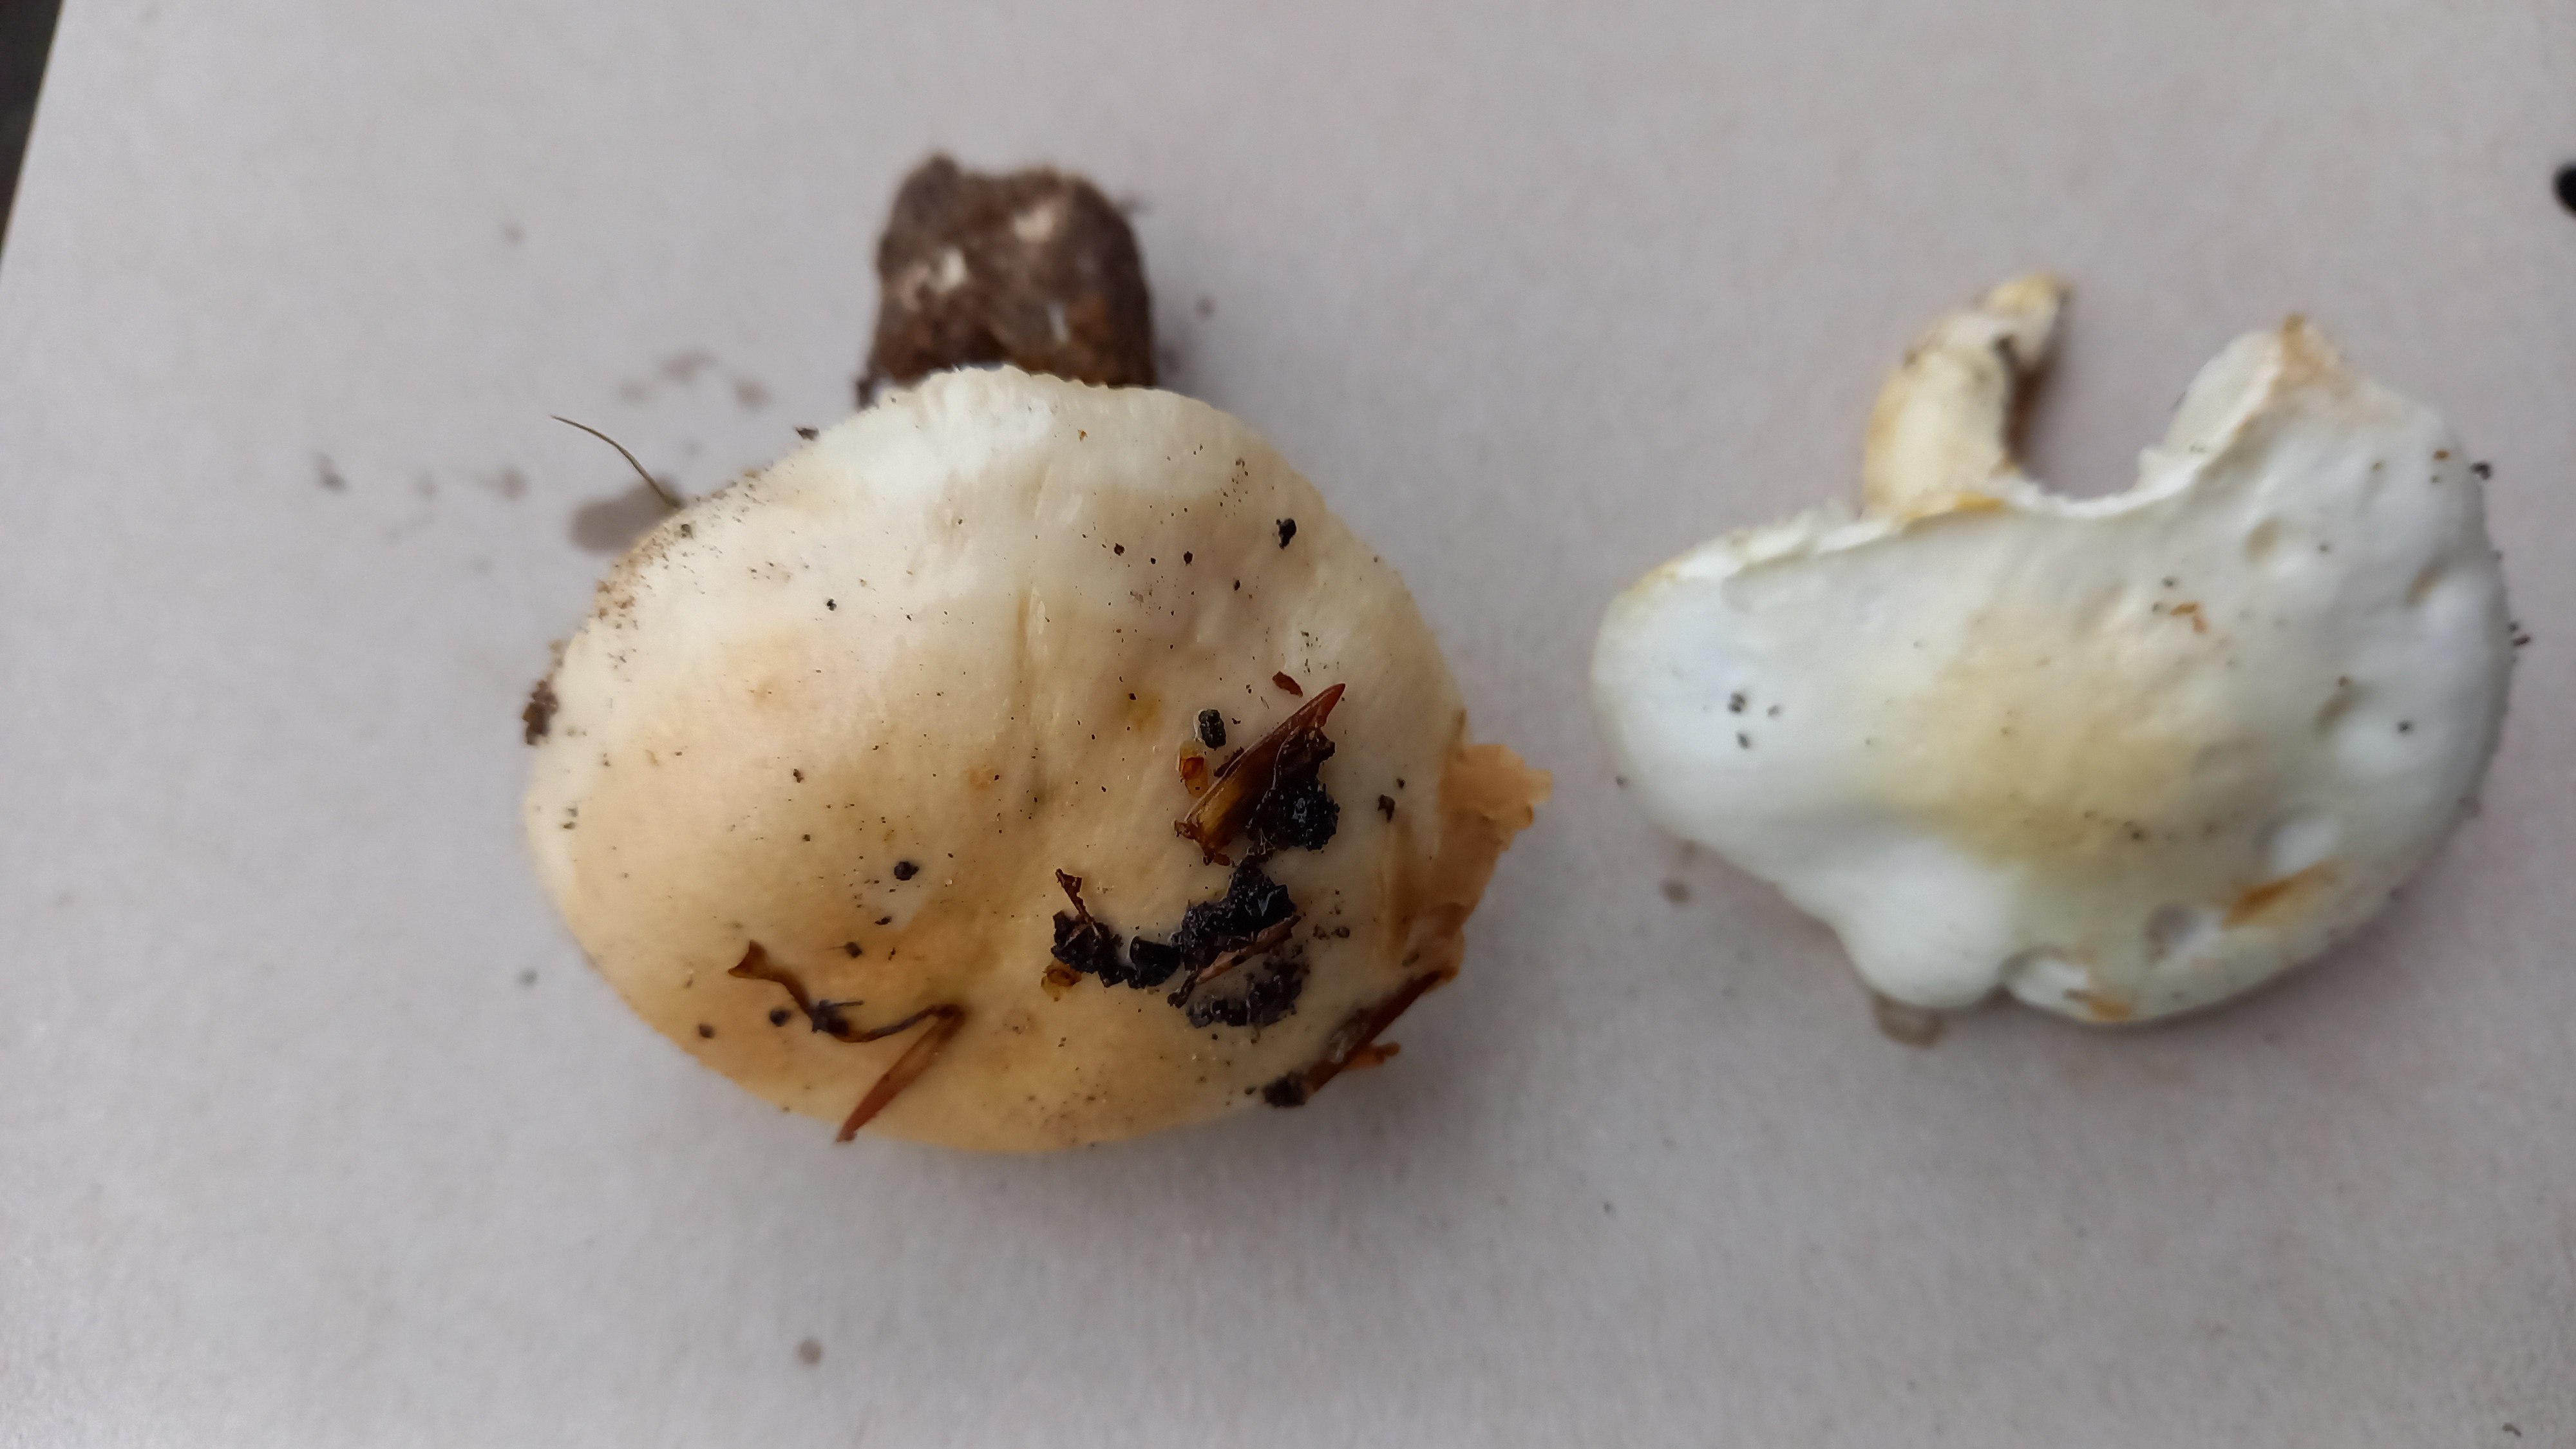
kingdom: Fungi
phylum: Basidiomycota
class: Agaricomycetes
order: Agaricales
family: Hygrophoraceae
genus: Hygrophorus
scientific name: Hygrophorus penarius
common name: spiselig sneglehat
